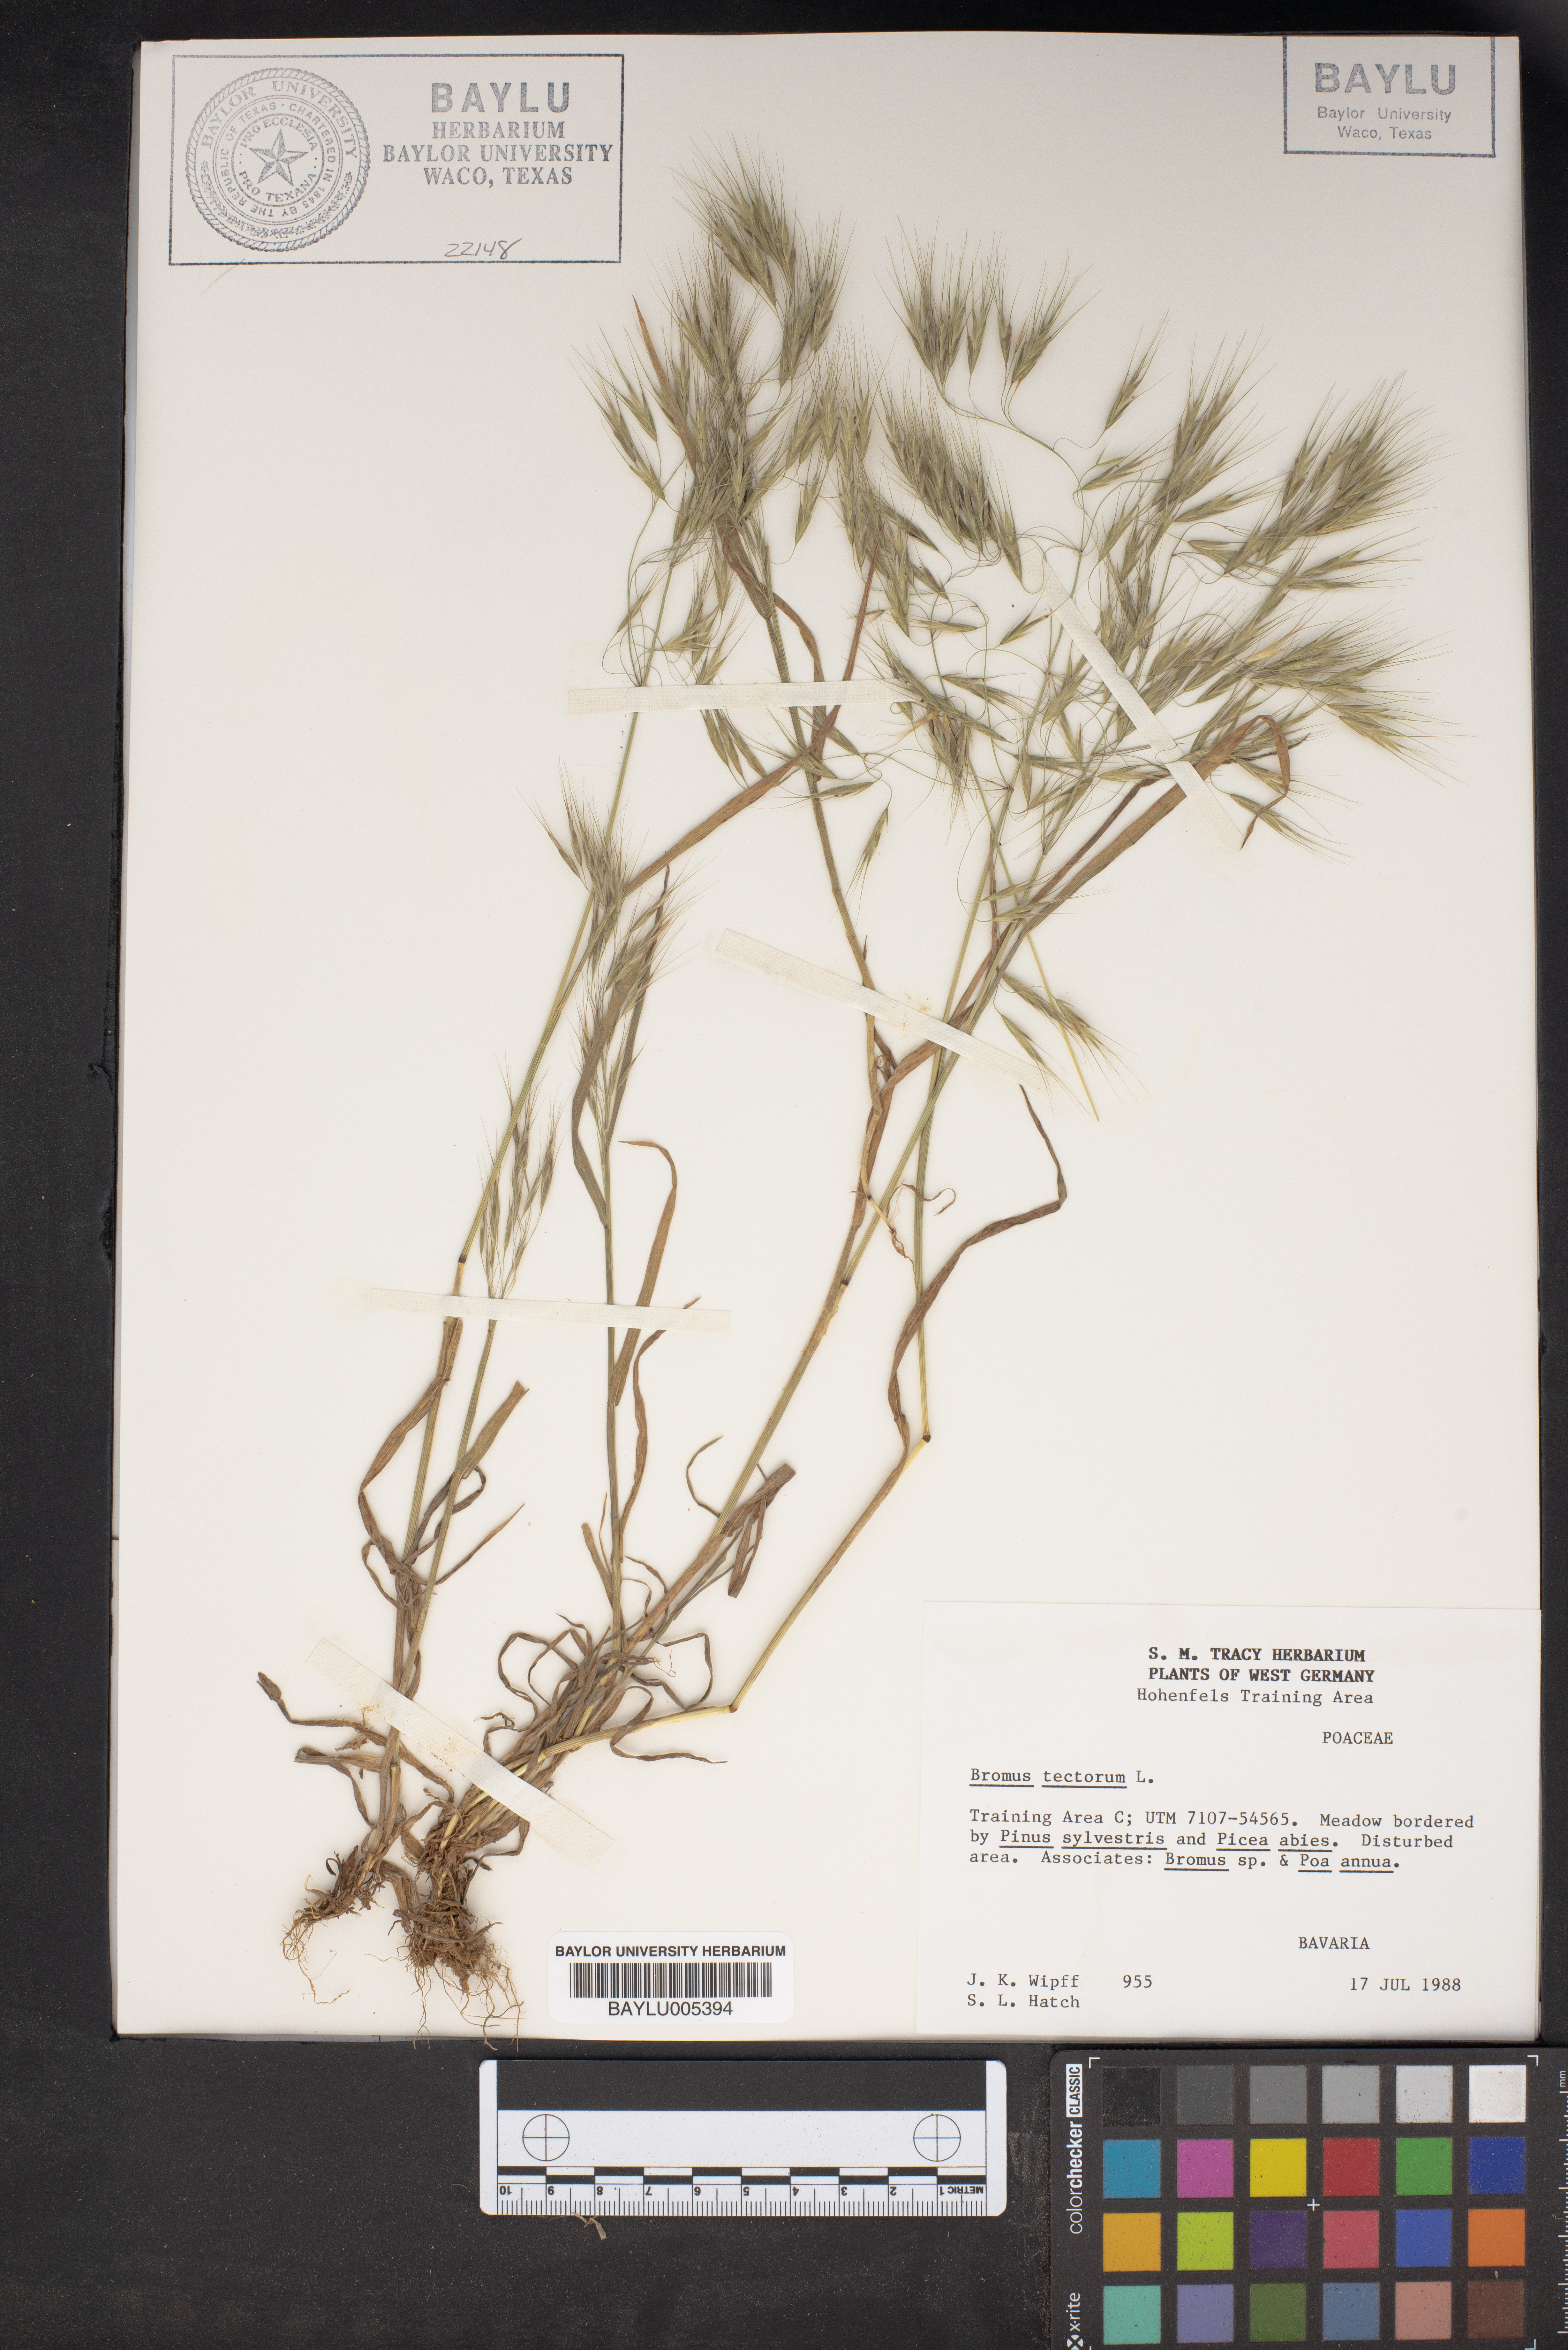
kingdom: Plantae
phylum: Tracheophyta
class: Liliopsida
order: Poales
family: Poaceae
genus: Bromus
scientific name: Bromus tectorum
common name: Cheatgrass
